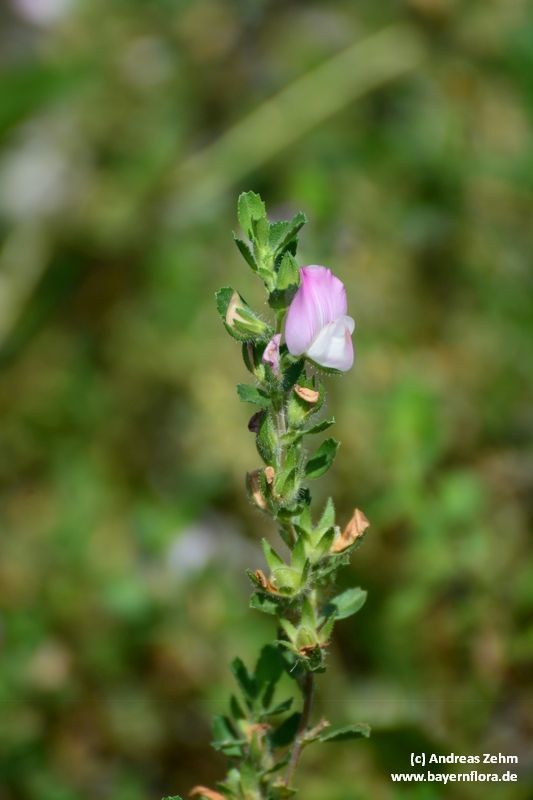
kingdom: Plantae
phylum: Tracheophyta
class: Magnoliopsida
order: Fabales
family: Fabaceae
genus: Ononis
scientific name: Ononis spinosa
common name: Spiny restharrow
